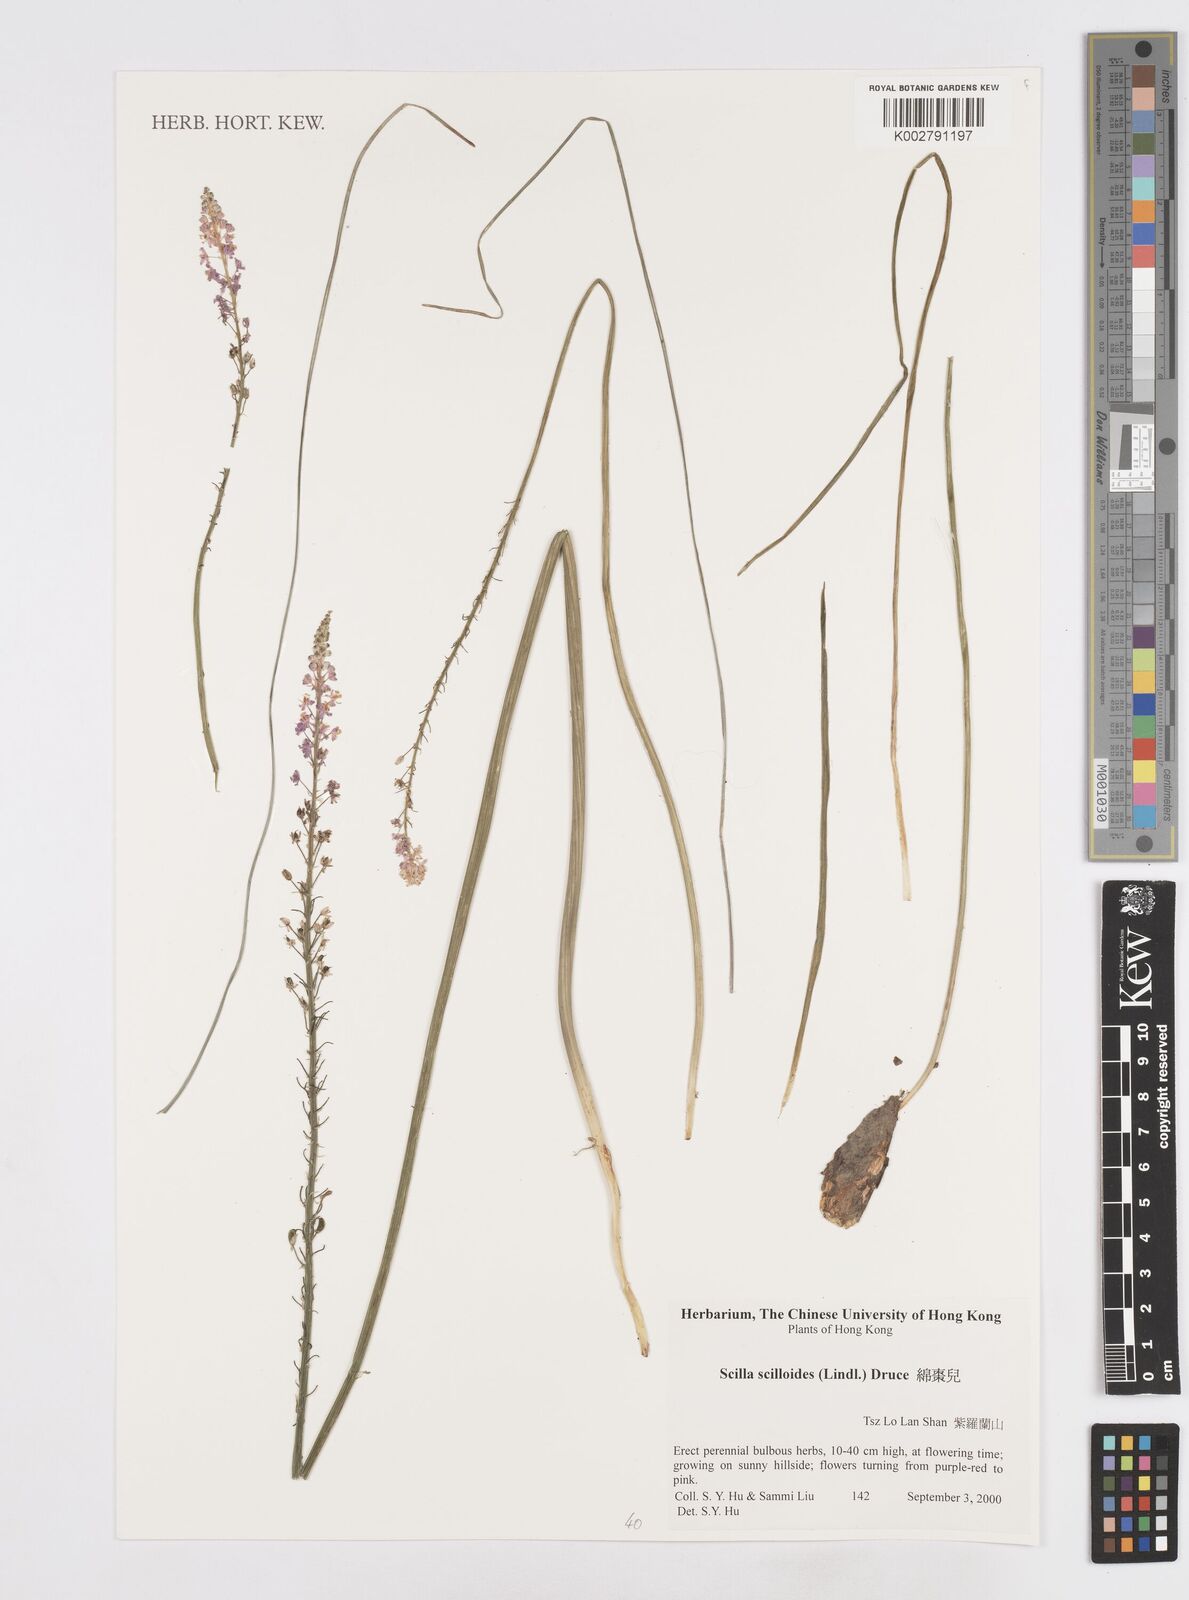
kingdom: Plantae
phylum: Tracheophyta
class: Liliopsida
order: Asparagales
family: Asparagaceae
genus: Barnardia
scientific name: Barnardia japonica
